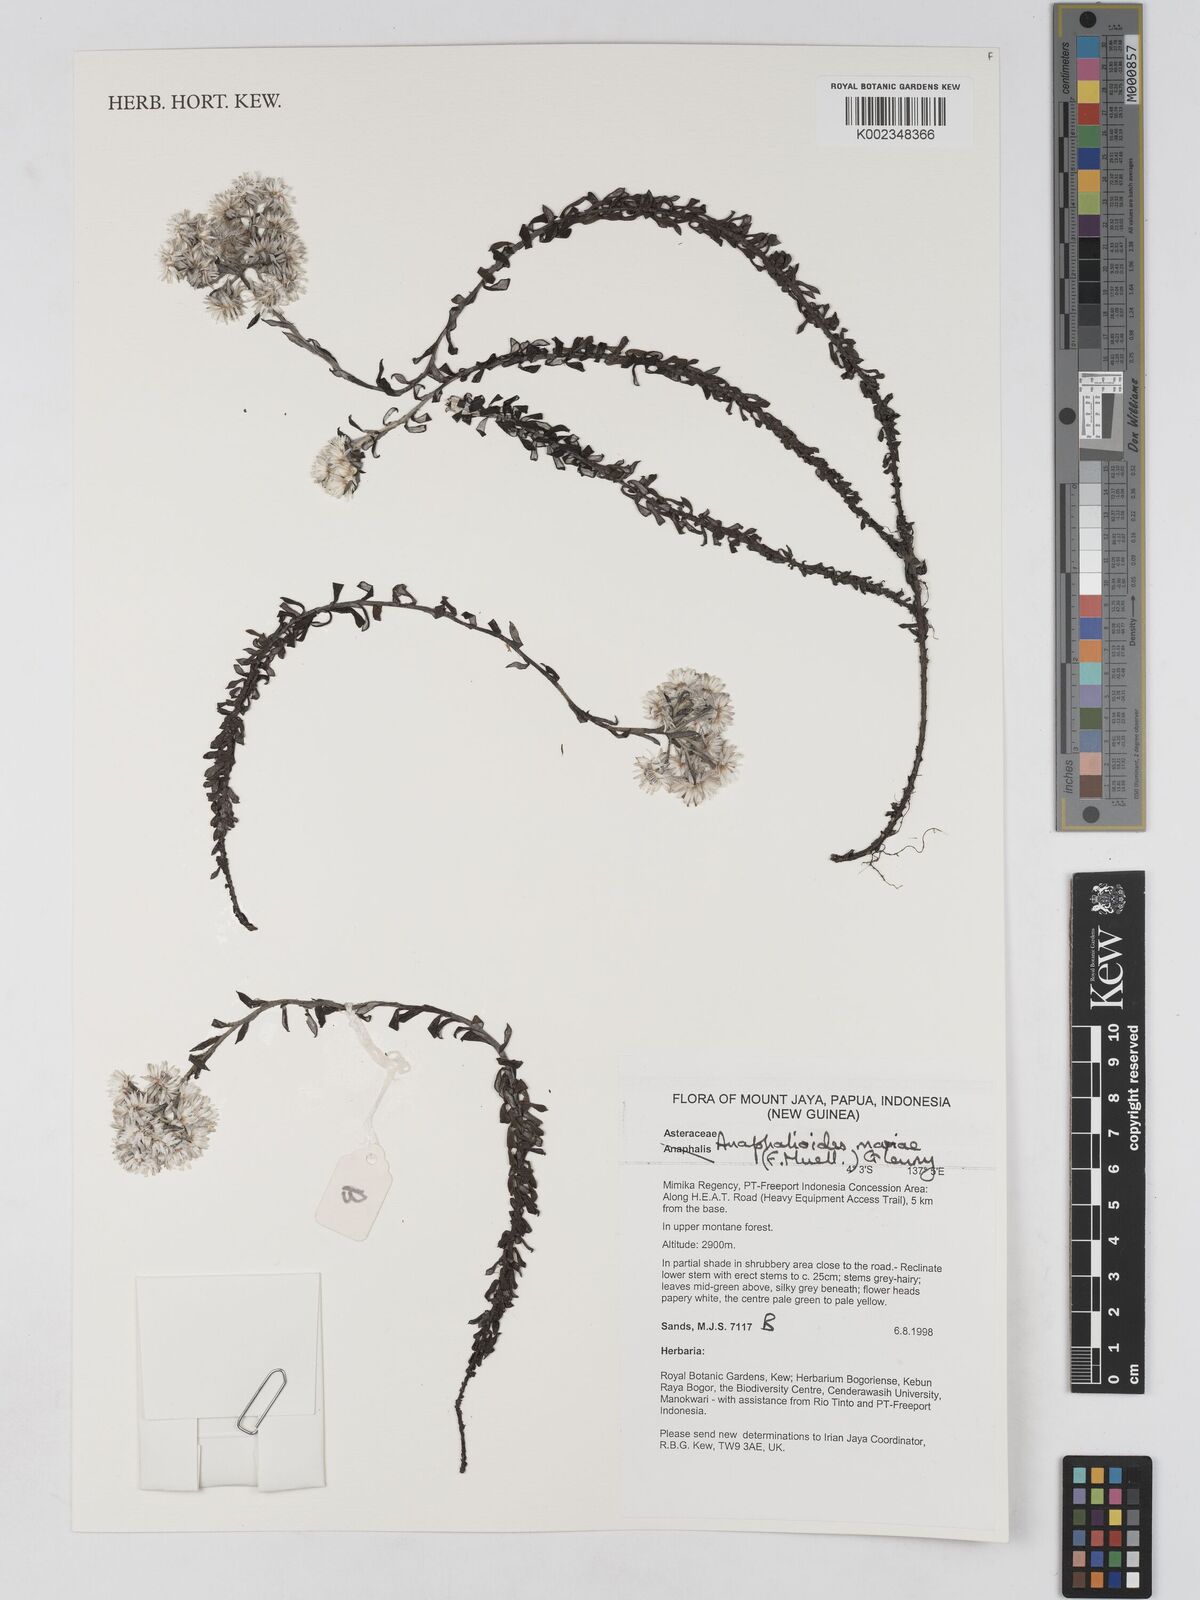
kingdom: Plantae
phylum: Tracheophyta
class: Magnoliopsida
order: Asterales
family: Asteraceae
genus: Anaphalioides
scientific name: Anaphalioides mariae
